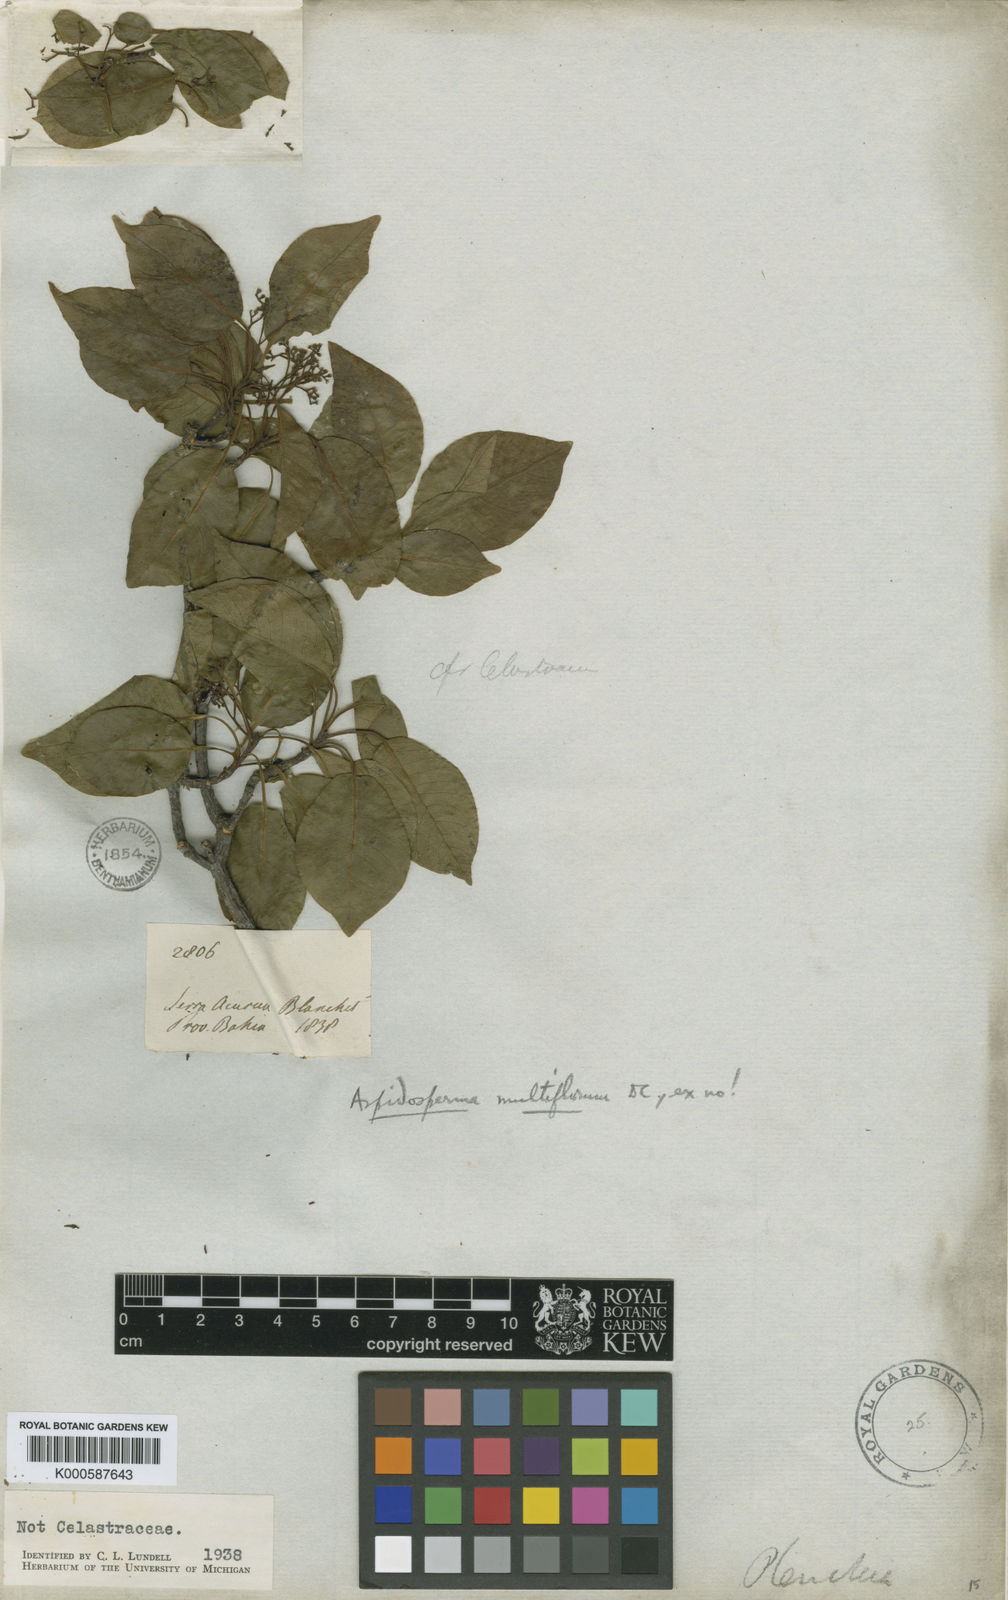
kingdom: Plantae
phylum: Tracheophyta
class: Magnoliopsida
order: Gentianales
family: Apocynaceae
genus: Aspidosperma
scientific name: Aspidosperma multiflorum
